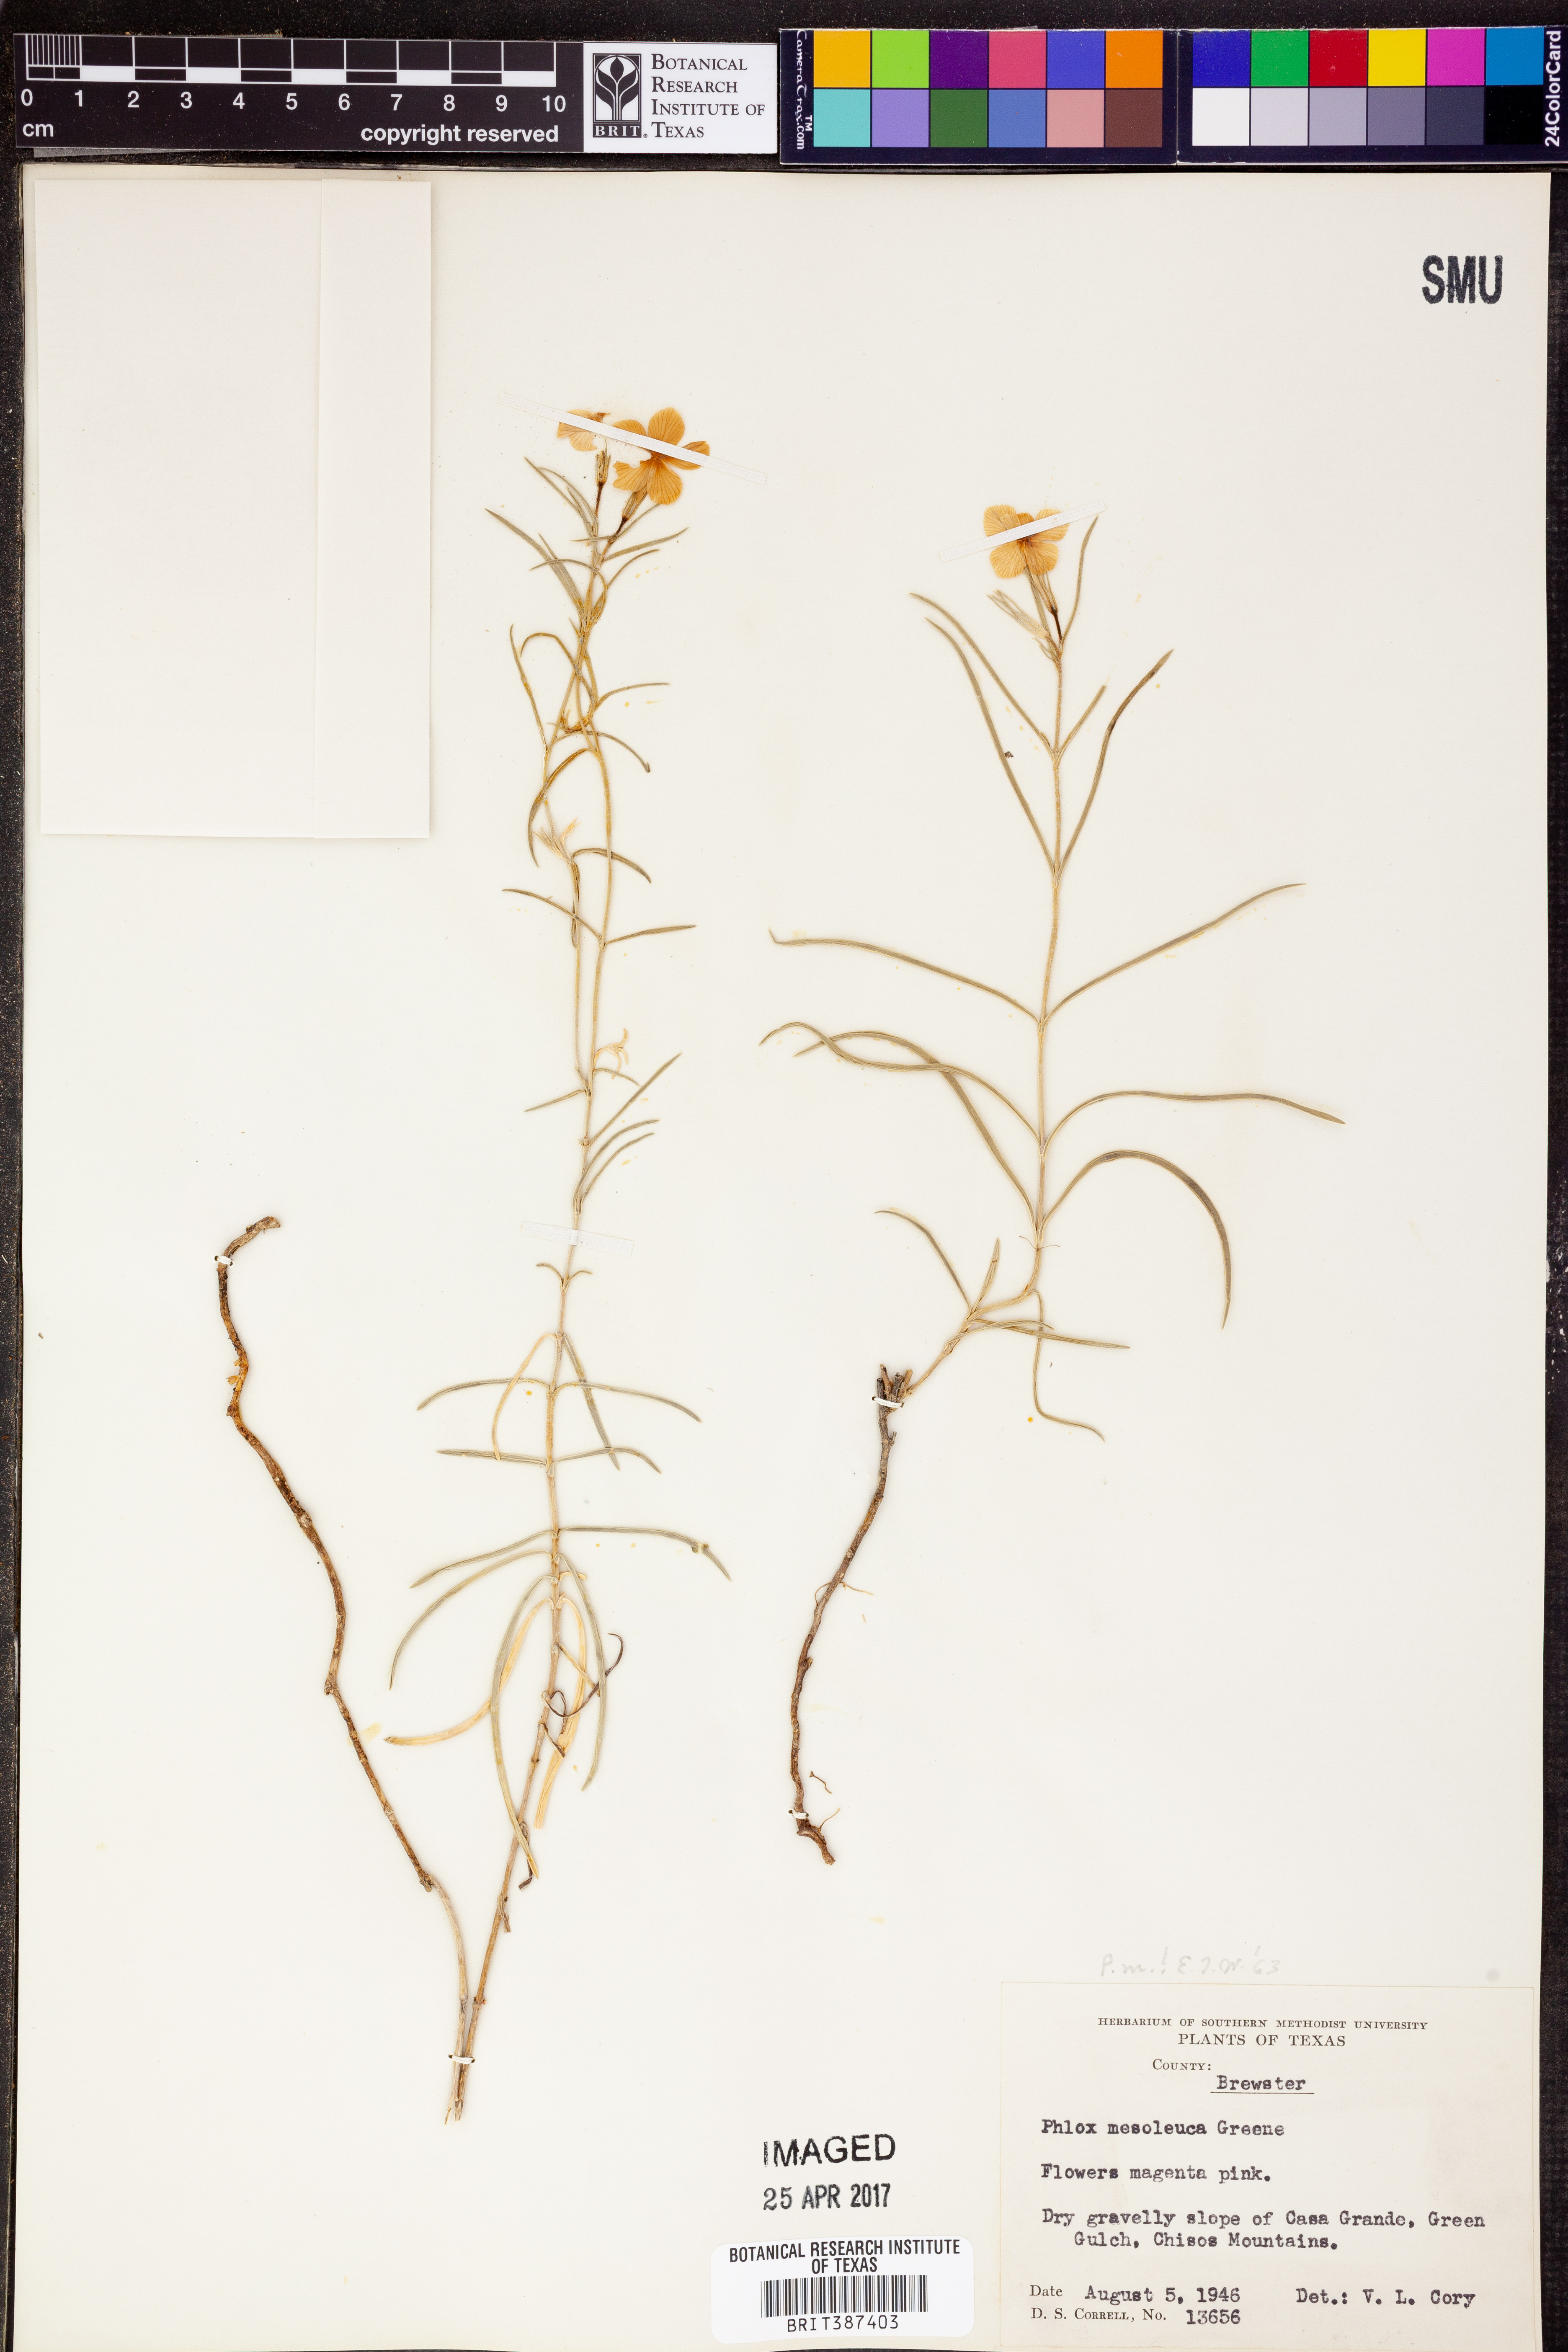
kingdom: Plantae
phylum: Tracheophyta
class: Magnoliopsida
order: Ericales
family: Polemoniaceae
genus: Phlox
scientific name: Phlox mesoleuca
